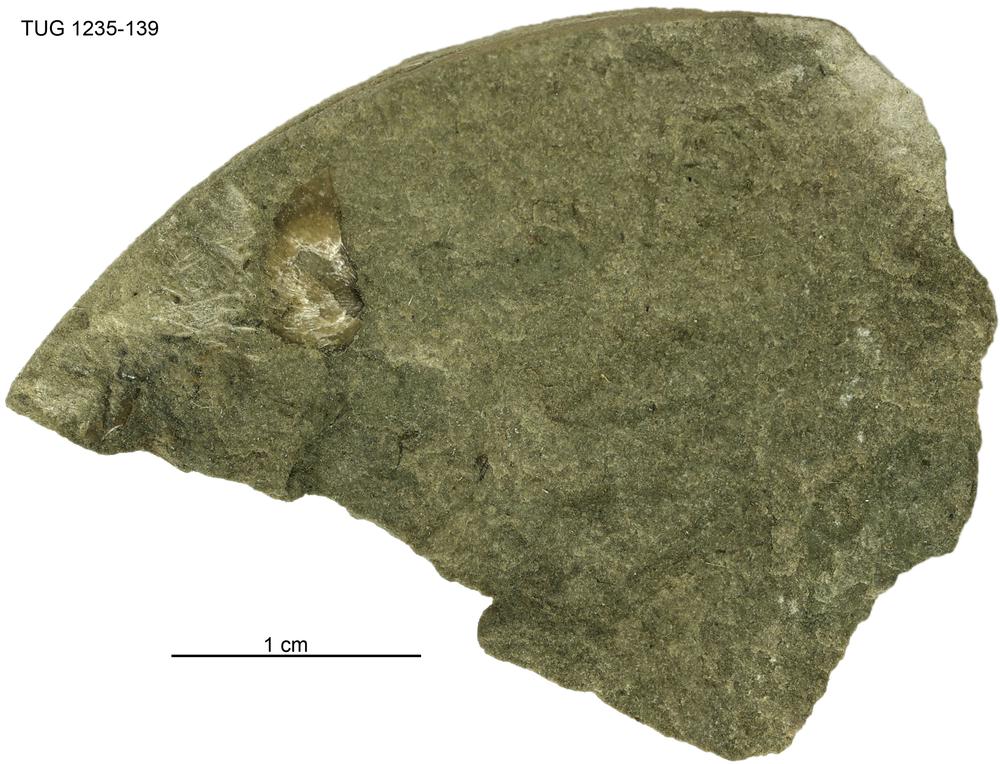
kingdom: Animalia
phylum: Brachiopoda
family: Oldhaminidae
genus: Eoplectodonta
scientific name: Eoplectodonta
